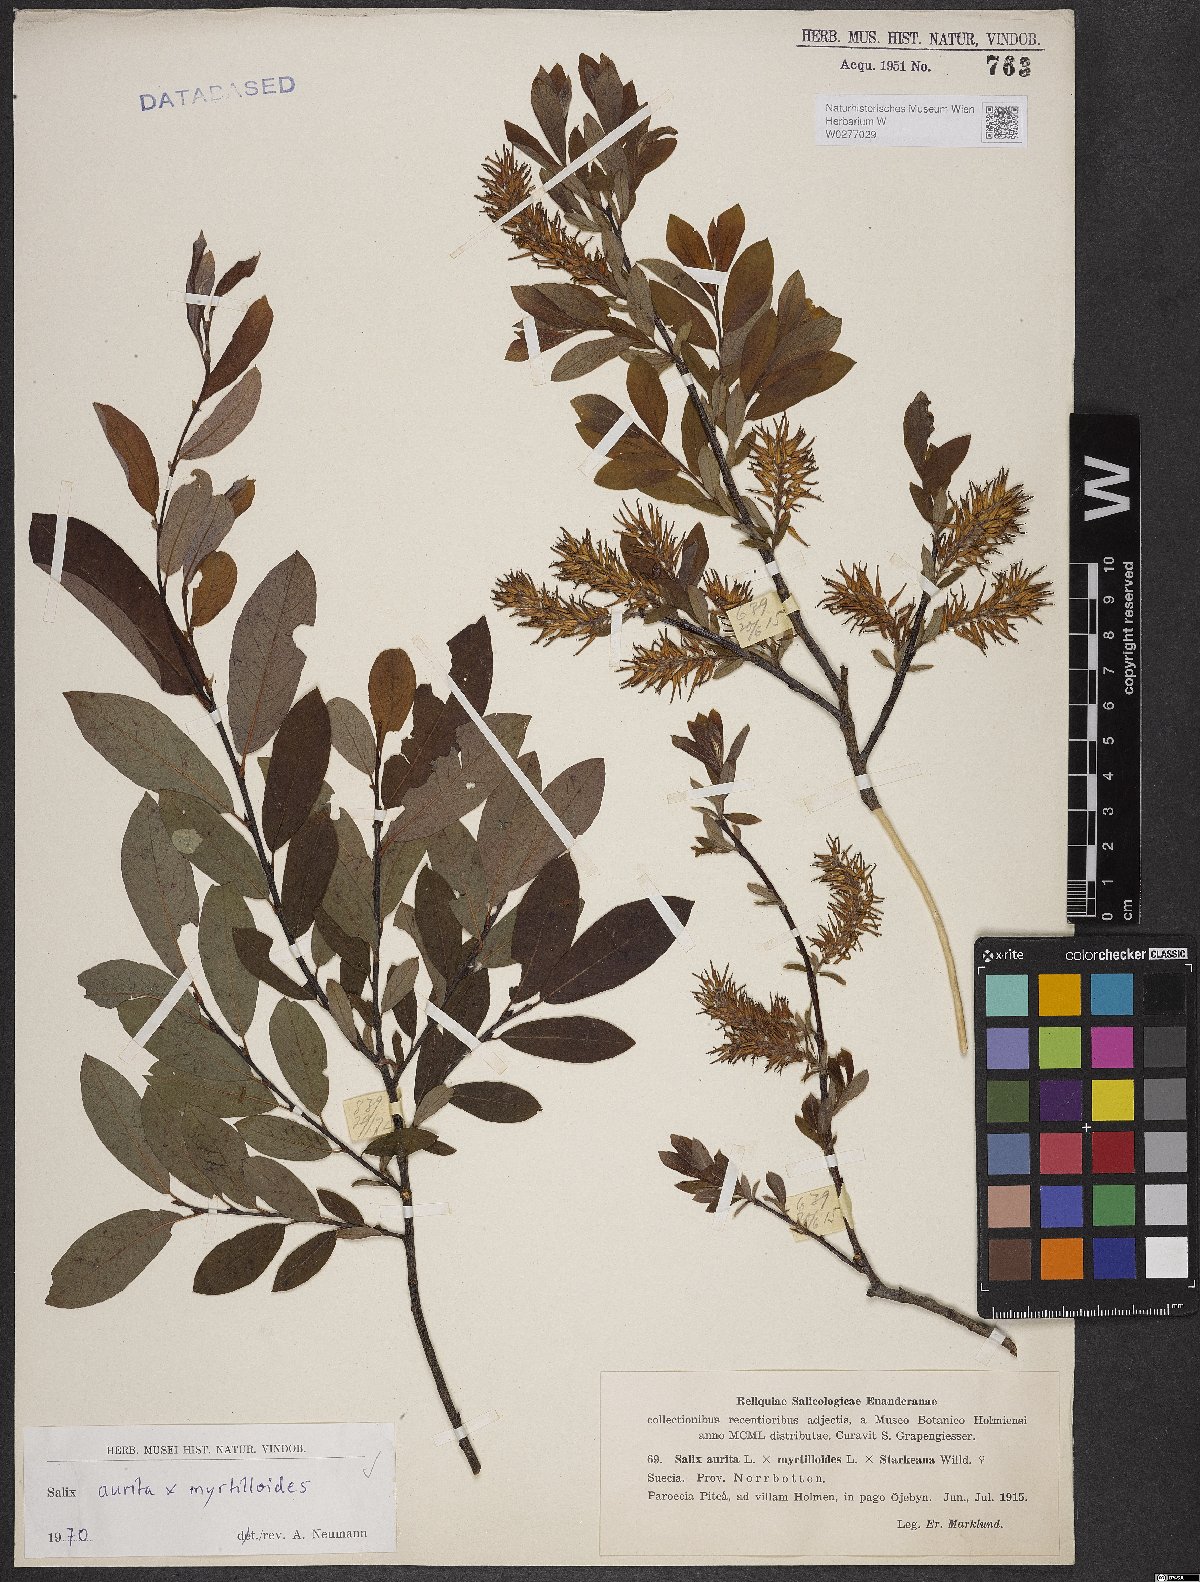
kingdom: Plantae
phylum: Tracheophyta
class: Magnoliopsida
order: Malpighiales
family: Salicaceae
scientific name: Salicaceae
